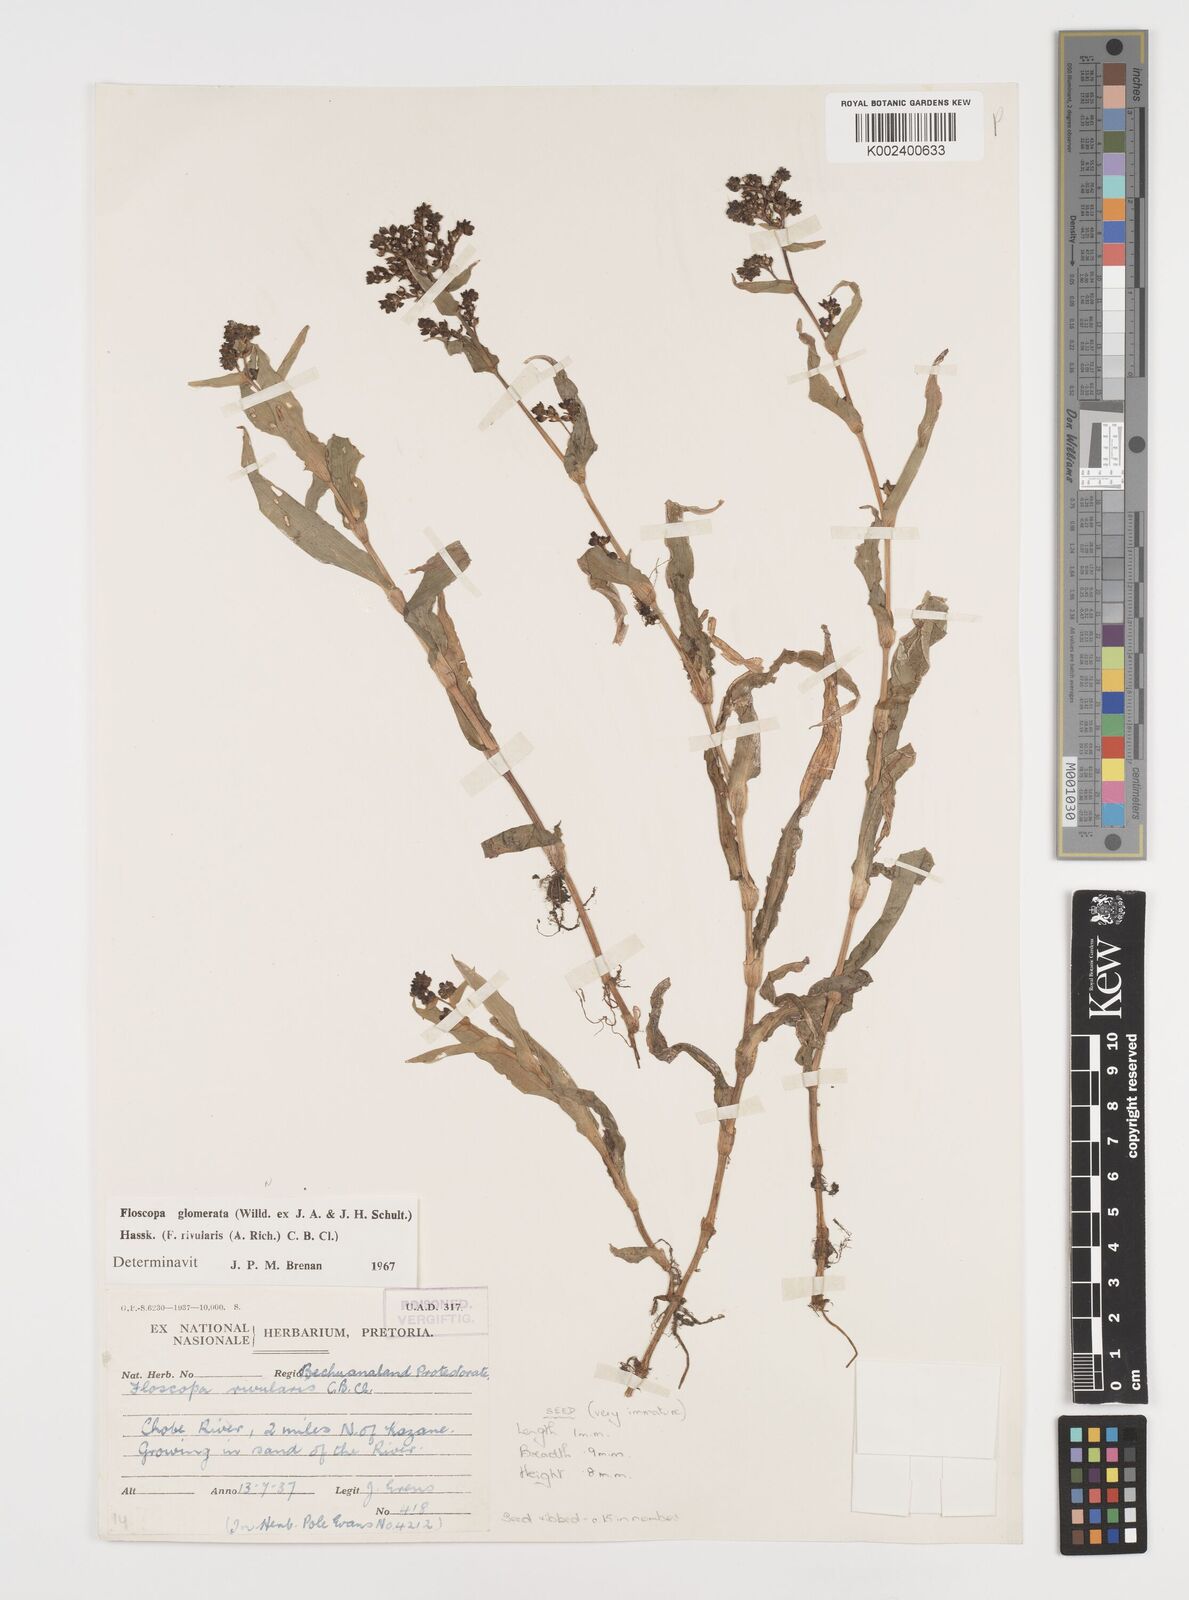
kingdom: Plantae
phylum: Tracheophyta
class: Liliopsida
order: Commelinales
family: Commelinaceae
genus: Floscopa
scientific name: Floscopa glomerata
